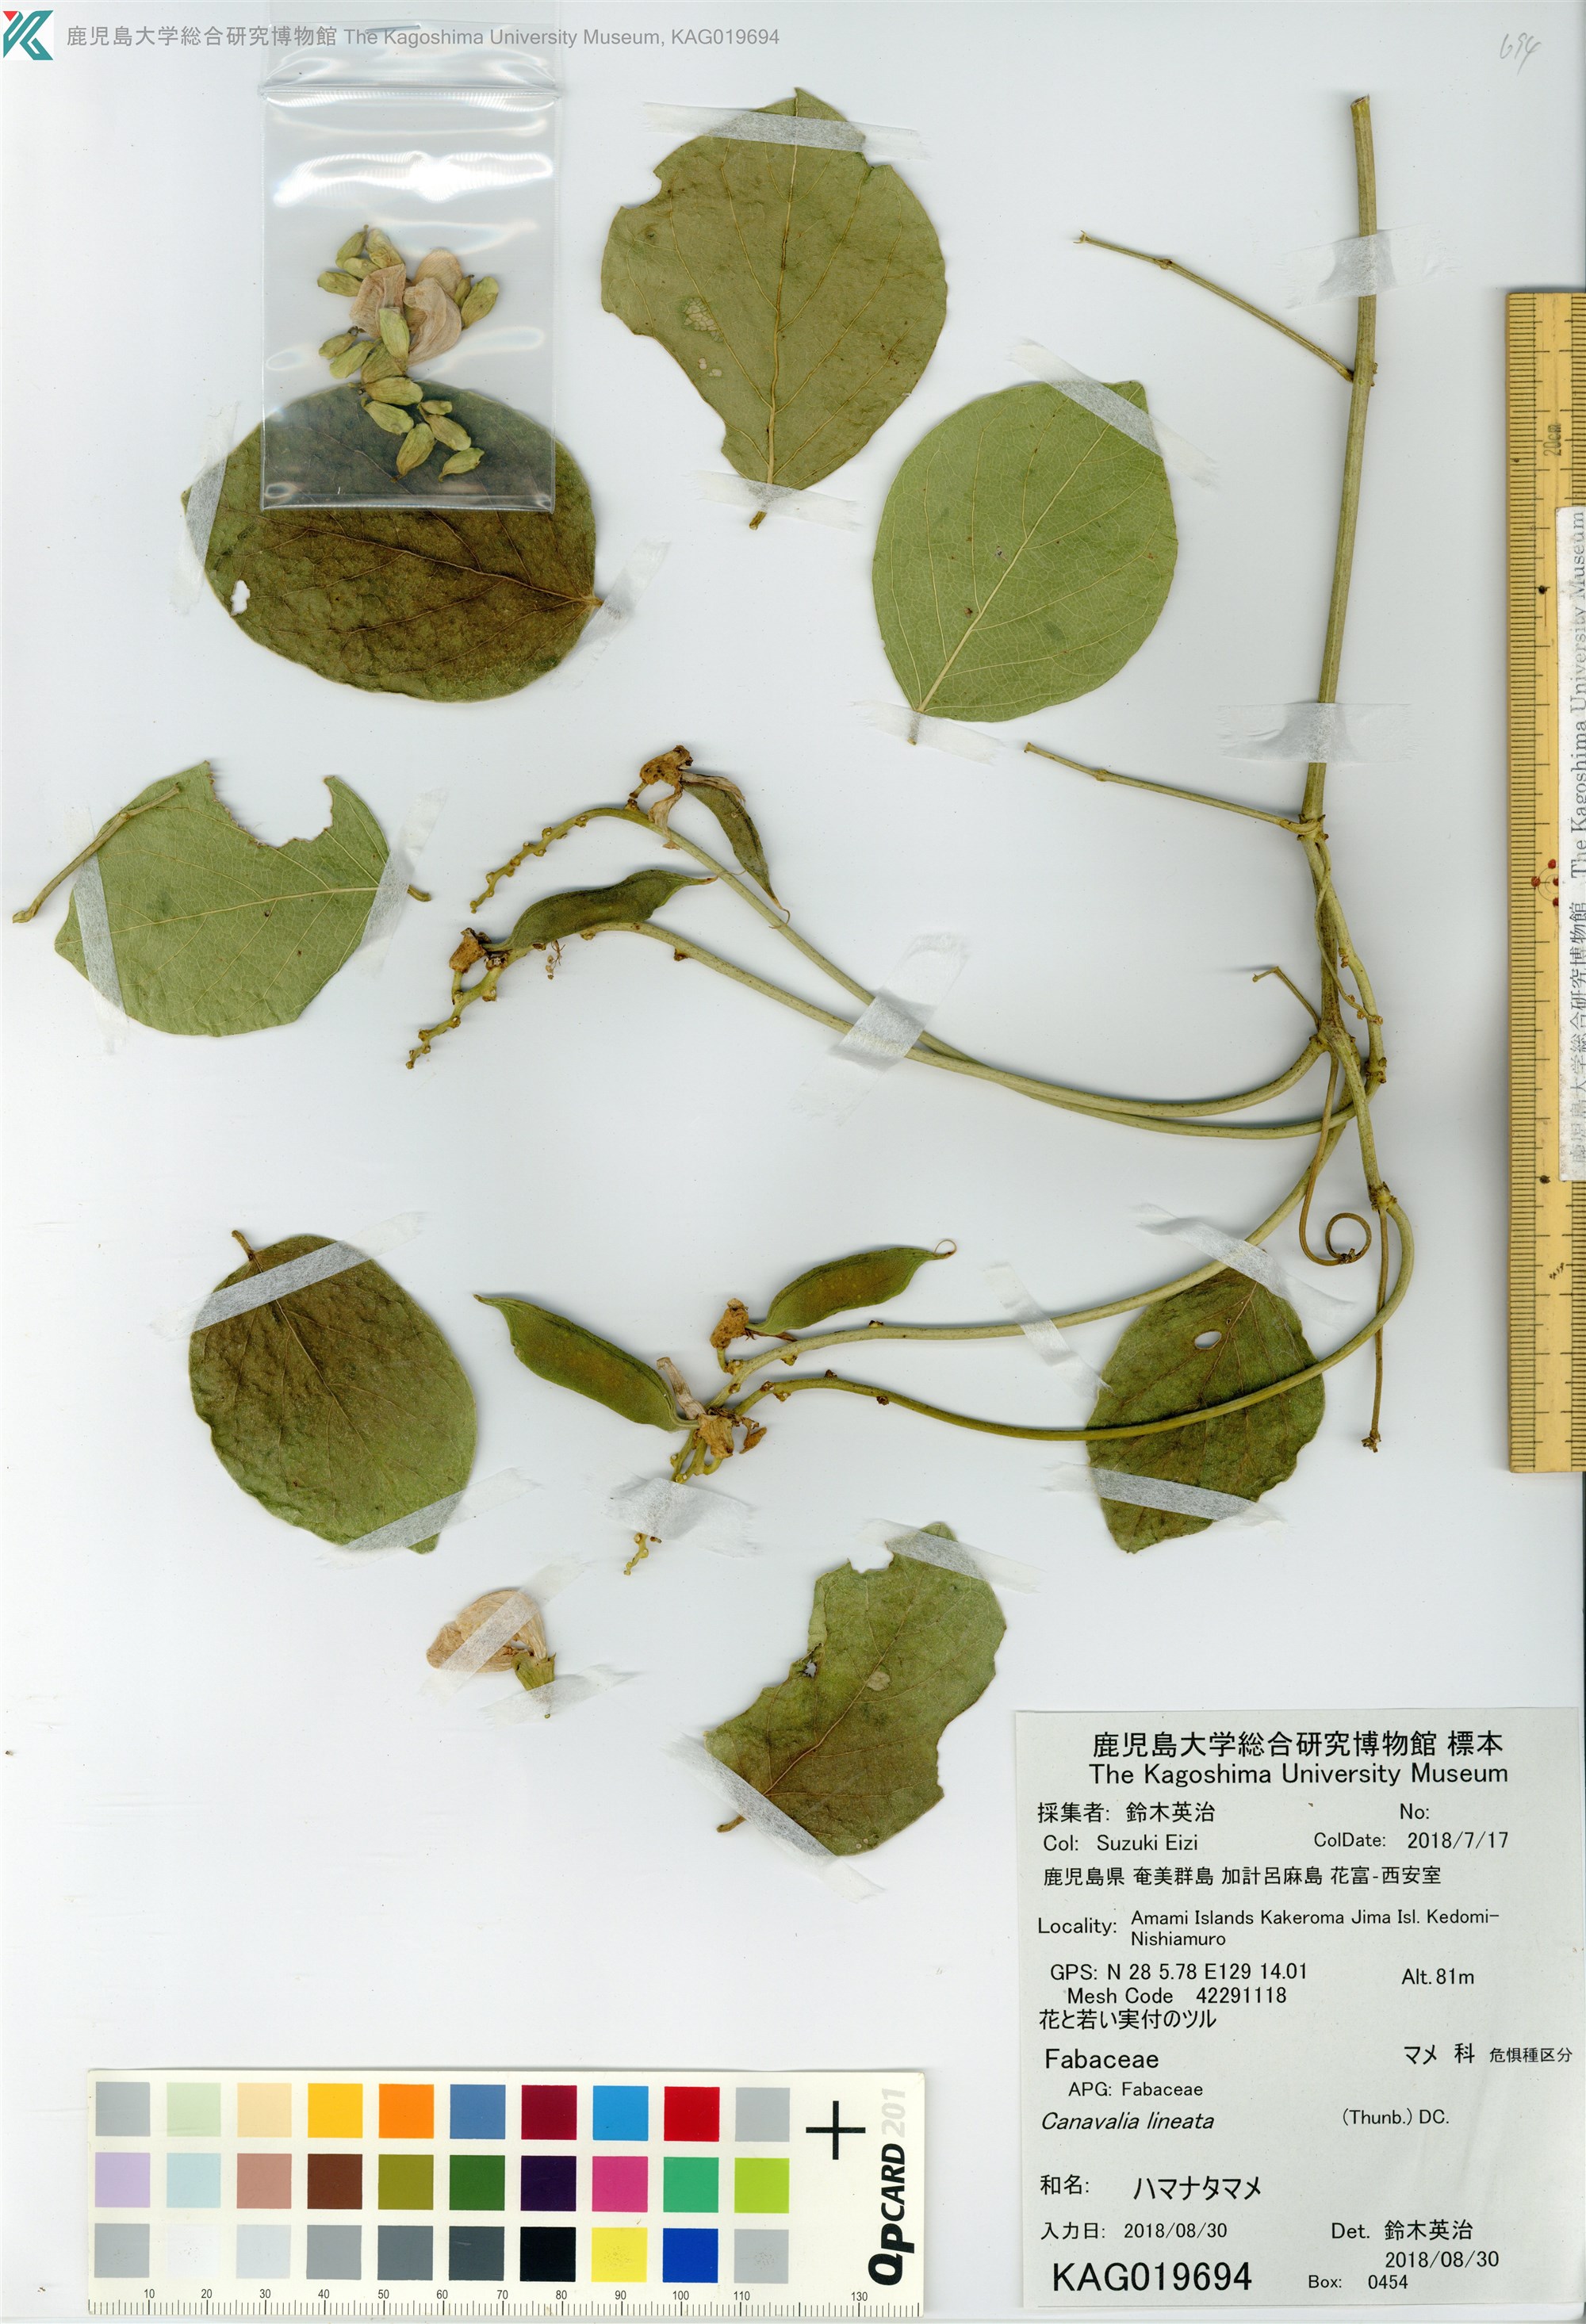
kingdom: Plantae
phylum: Tracheophyta
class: Magnoliopsida
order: Fabales
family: Fabaceae
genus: Canavalia
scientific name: Canavalia lineata
